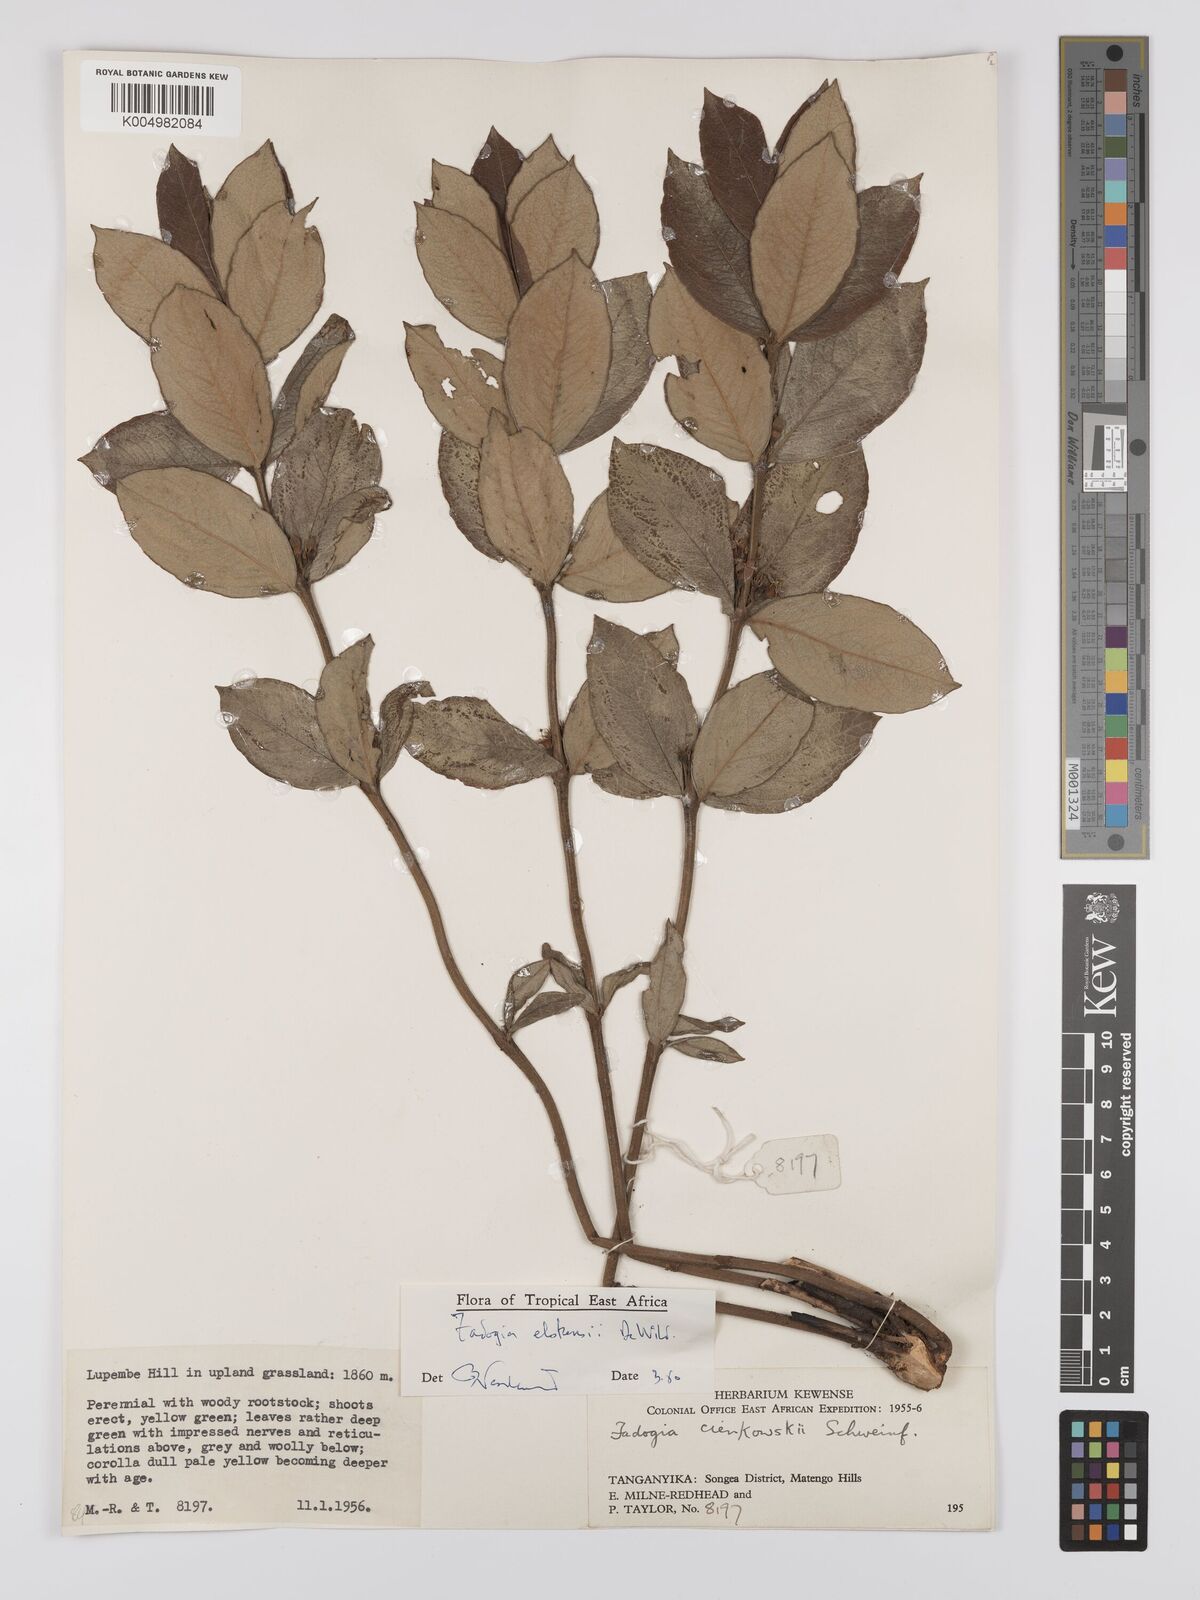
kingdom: Plantae
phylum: Tracheophyta
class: Magnoliopsida
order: Gentianales
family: Rubiaceae
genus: Fadogia
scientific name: Fadogia elskensii
